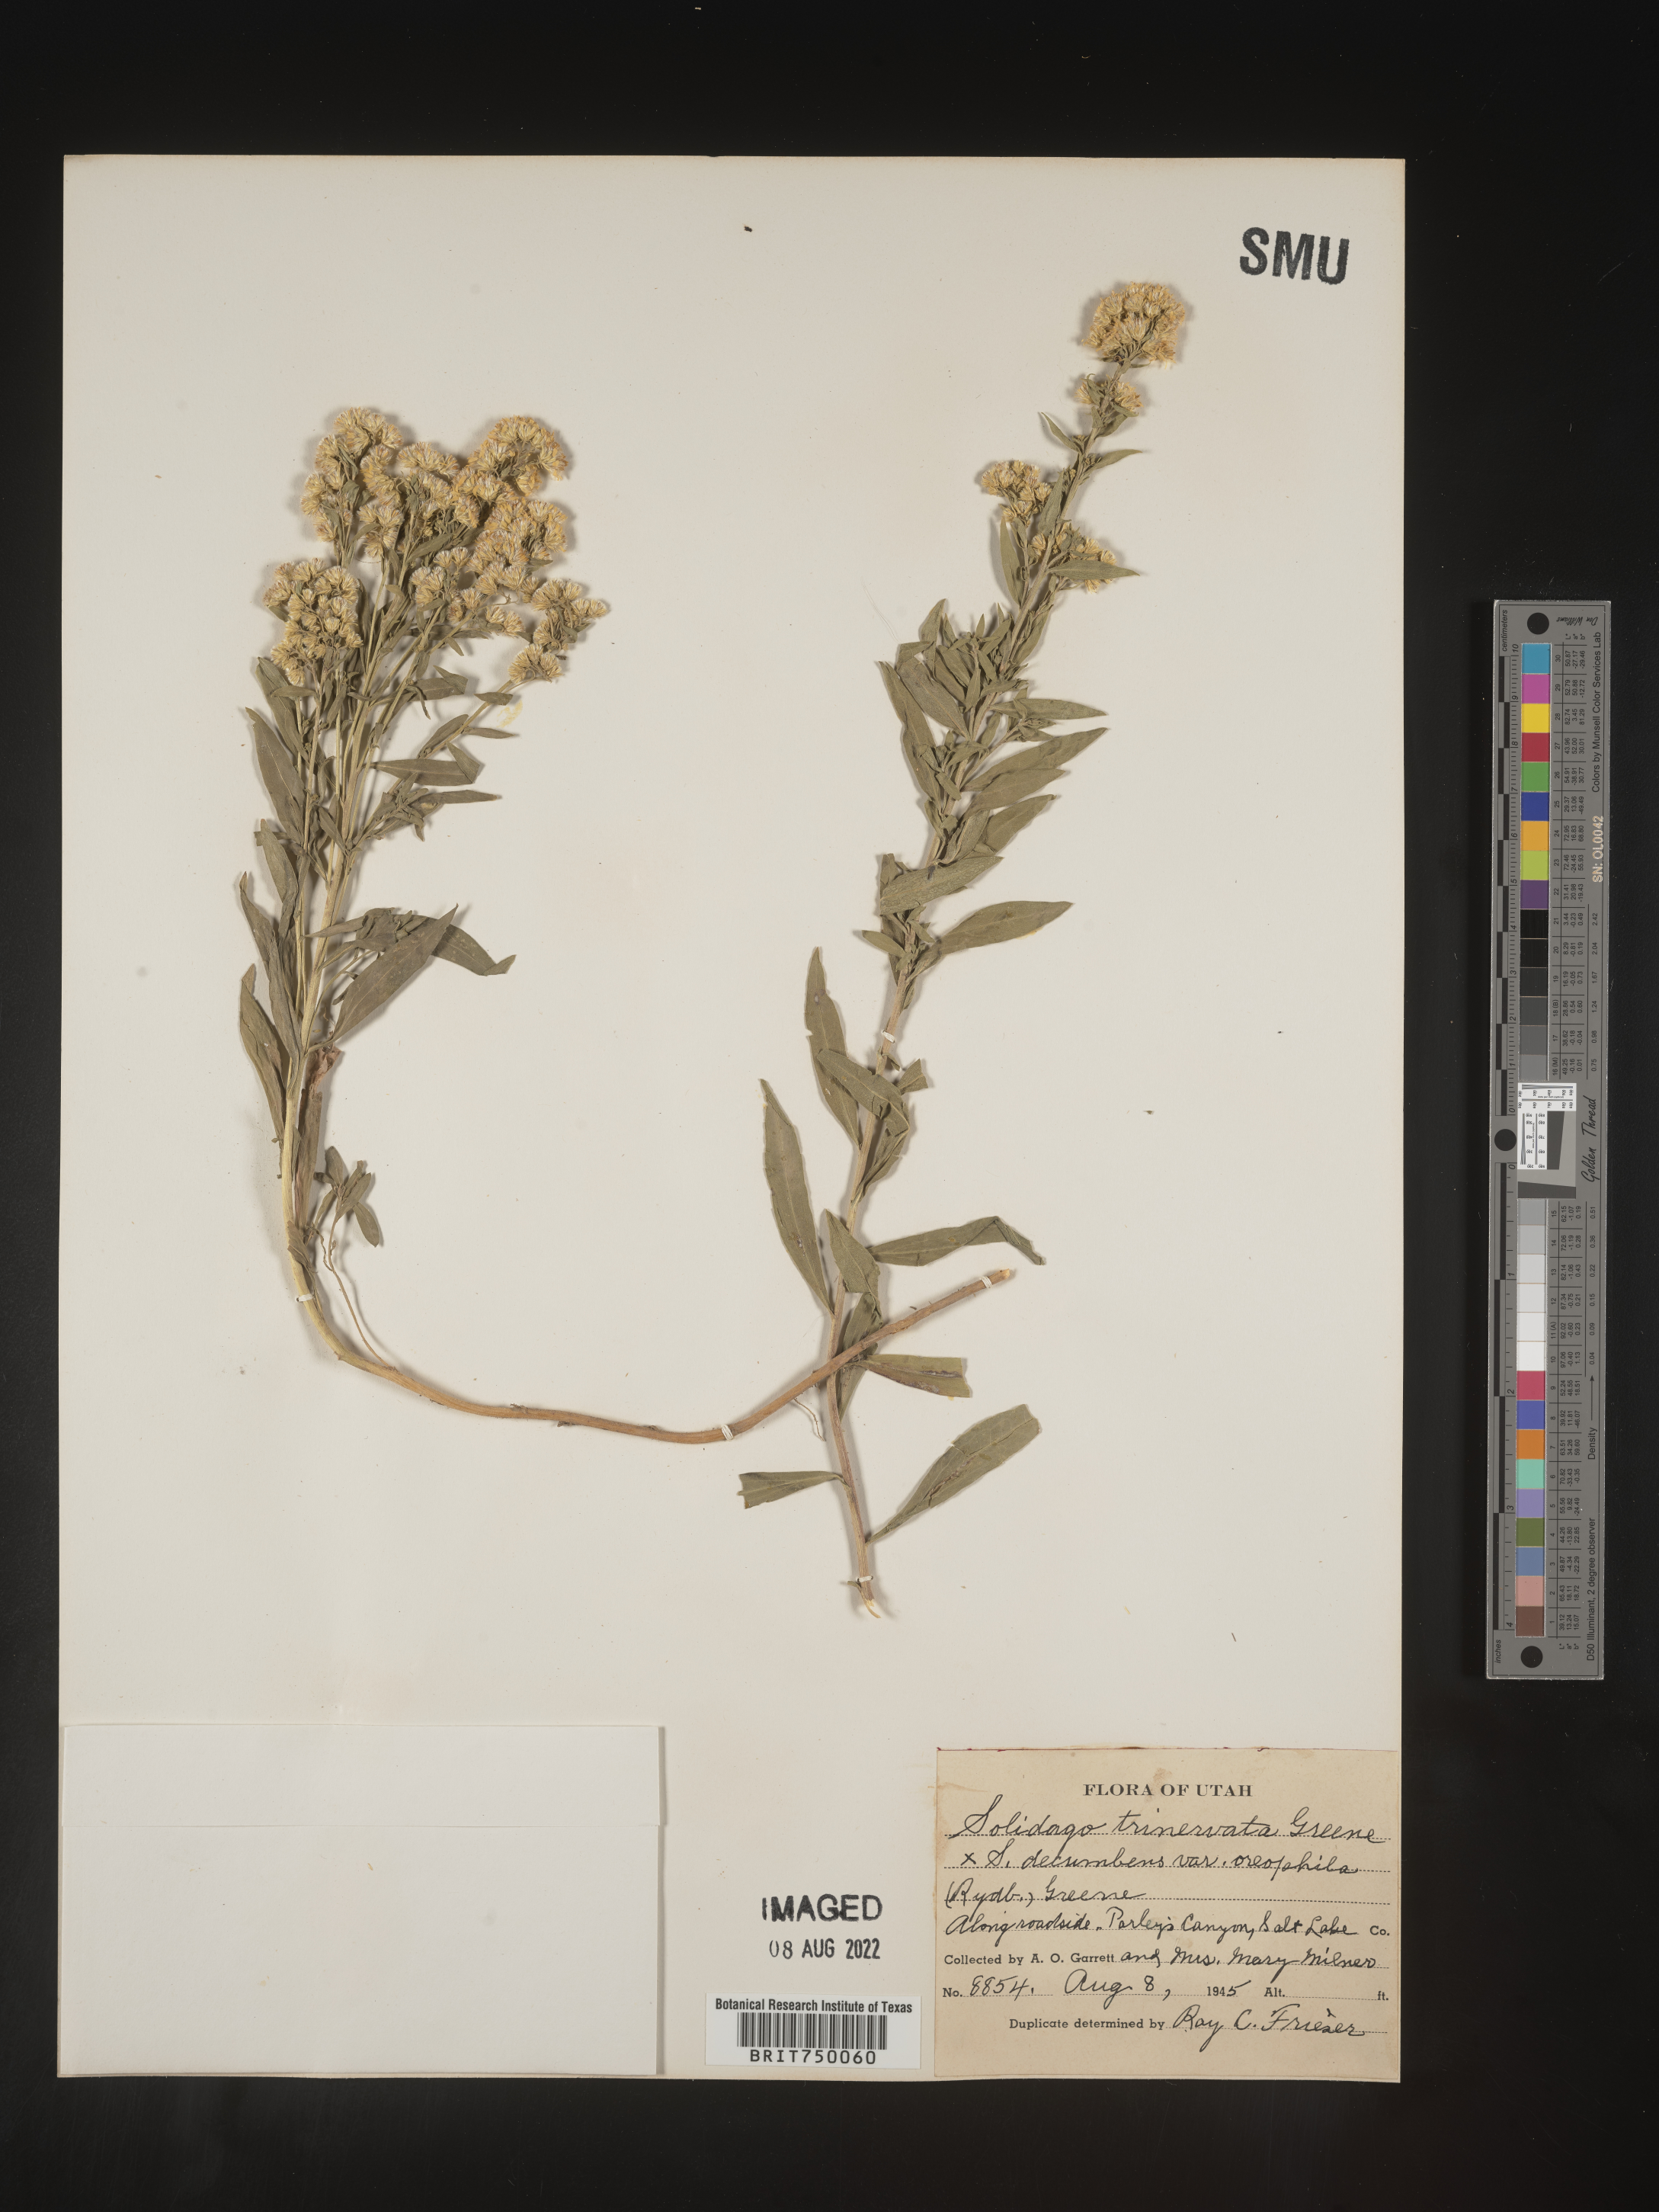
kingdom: Plantae
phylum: Tracheophyta
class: Magnoliopsida
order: Asterales
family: Asteraceae
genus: Solidago
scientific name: Solidago velutina
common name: Three-nerve goldenrod
